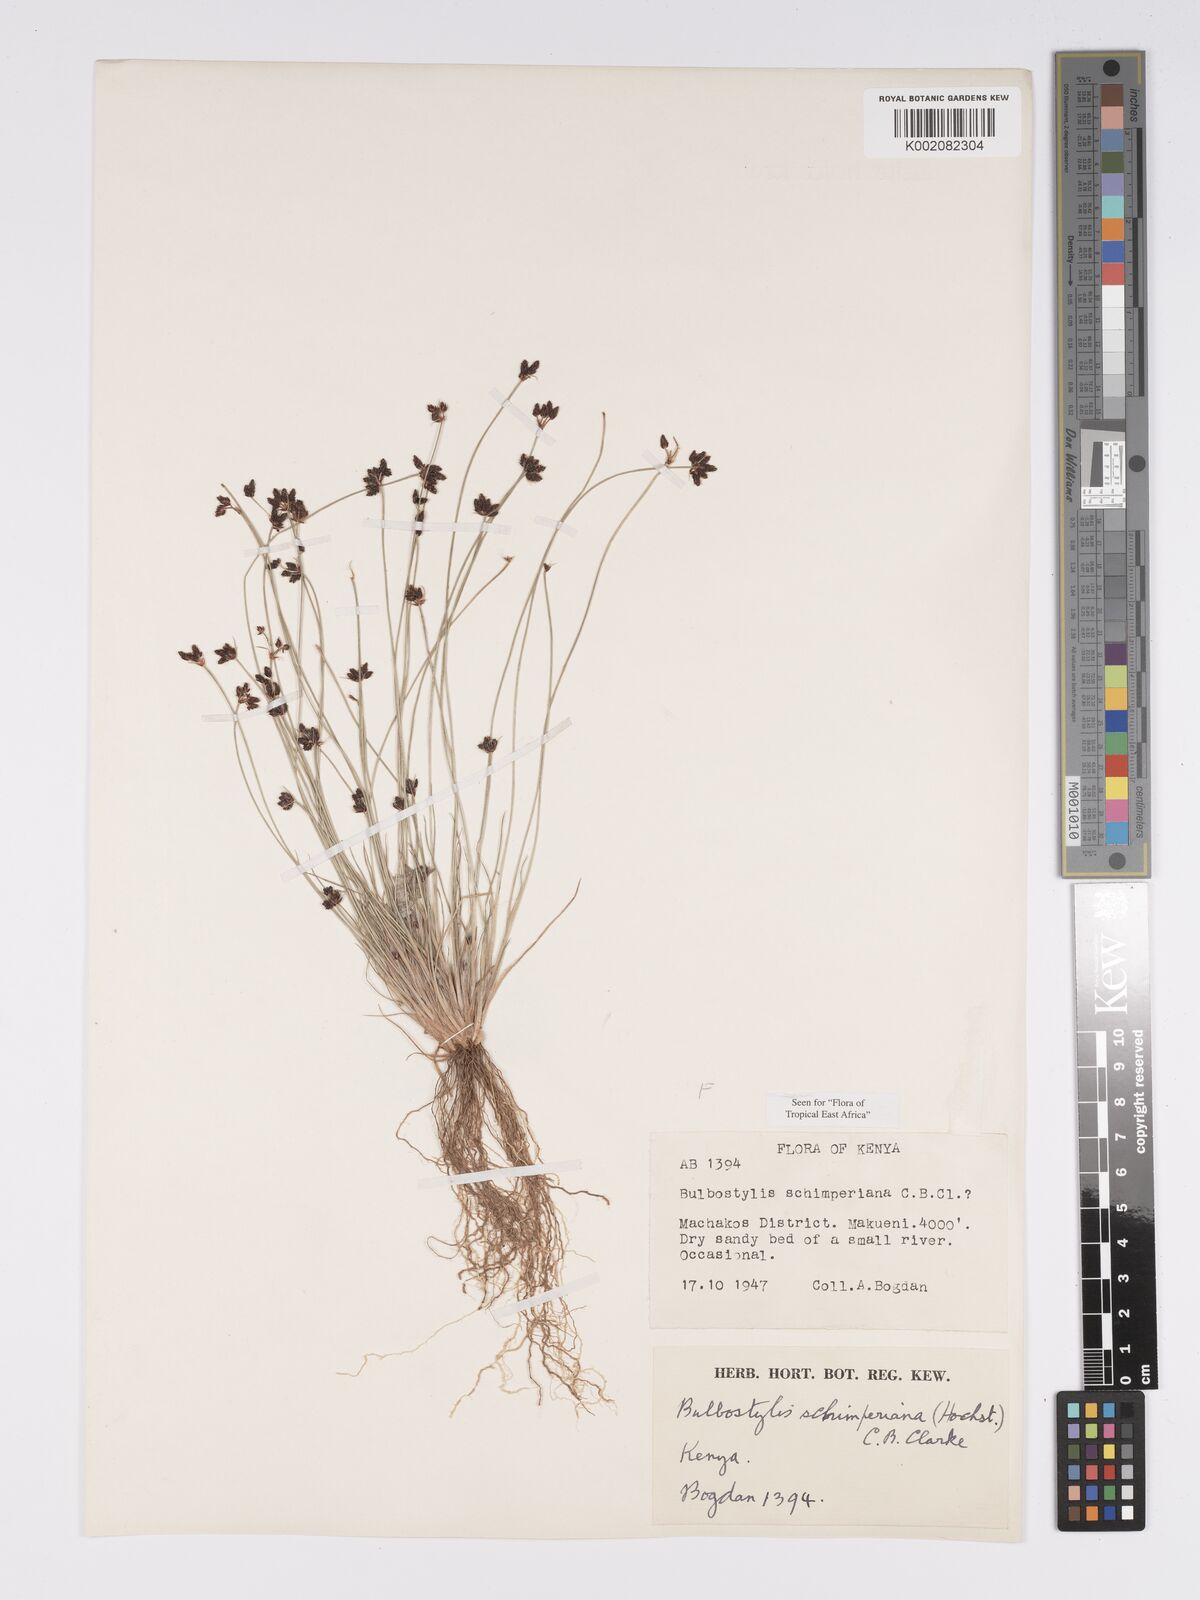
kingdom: Plantae
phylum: Tracheophyta
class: Liliopsida
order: Poales
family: Cyperaceae
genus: Bulbostylis
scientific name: Bulbostylis schimperiana
